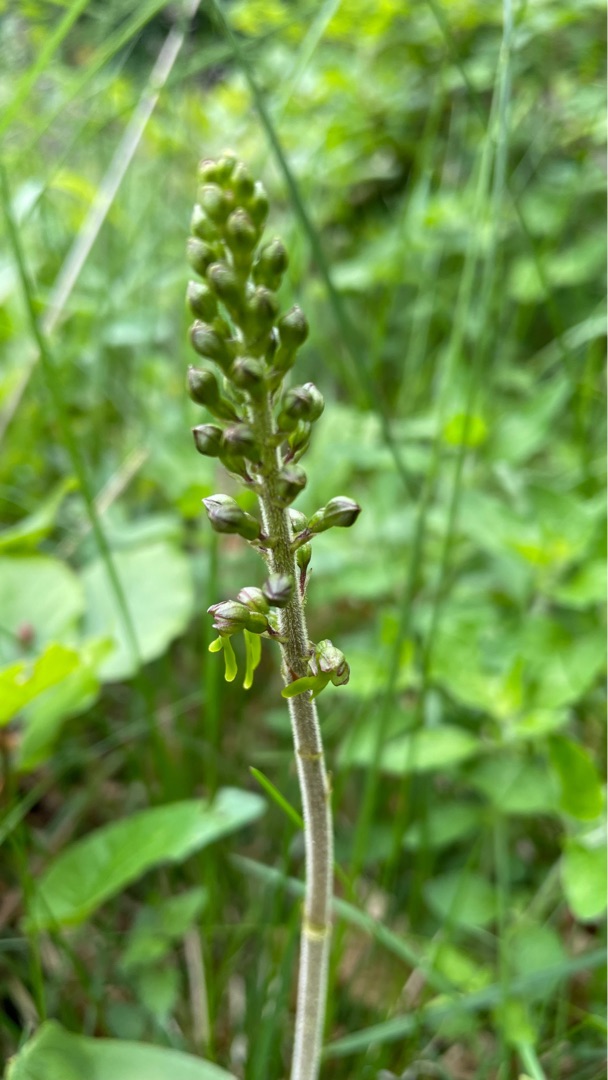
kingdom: Plantae
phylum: Tracheophyta
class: Liliopsida
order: Asparagales
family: Orchidaceae
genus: Neottia
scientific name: Neottia ovata
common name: Ægbladet fliglæbe
